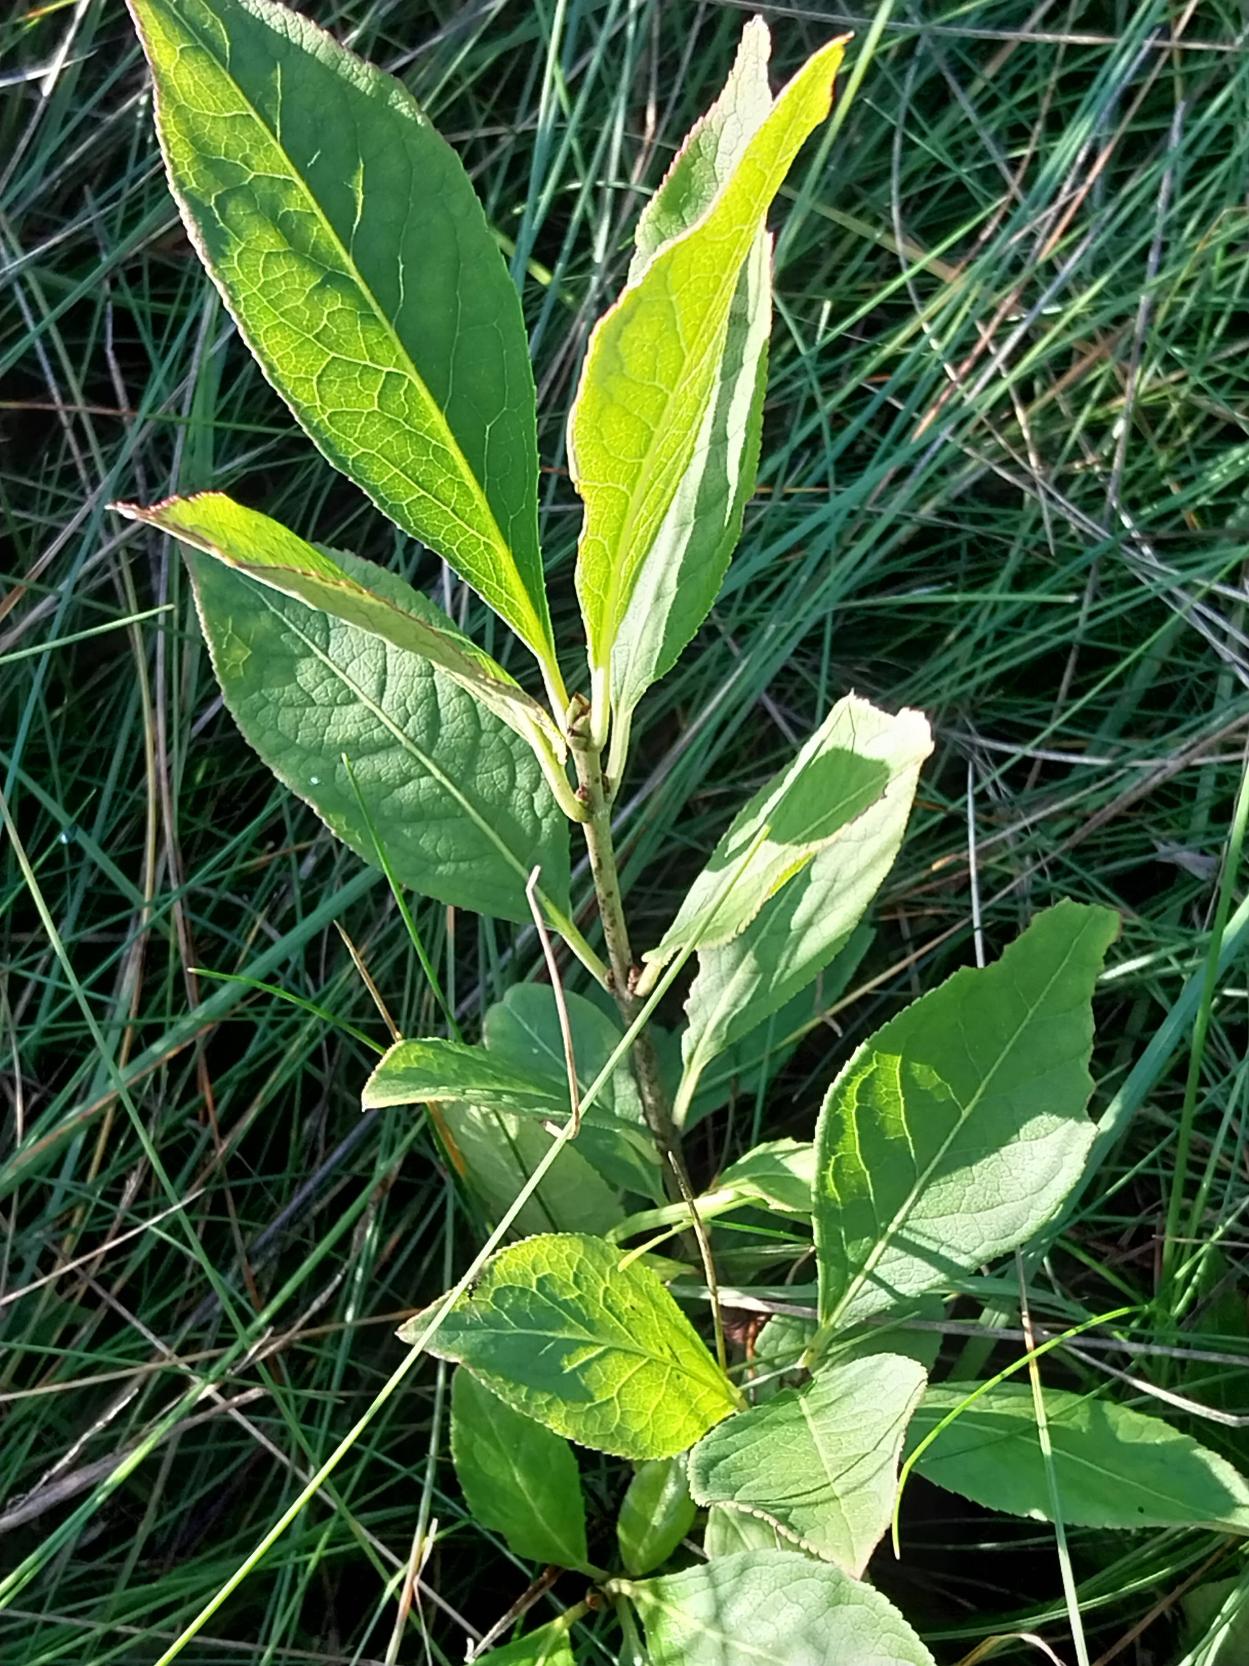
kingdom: Plantae
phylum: Tracheophyta
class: Magnoliopsida
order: Celastrales
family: Celastraceae
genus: Euonymus
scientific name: Euonymus europaeus
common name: Benved
